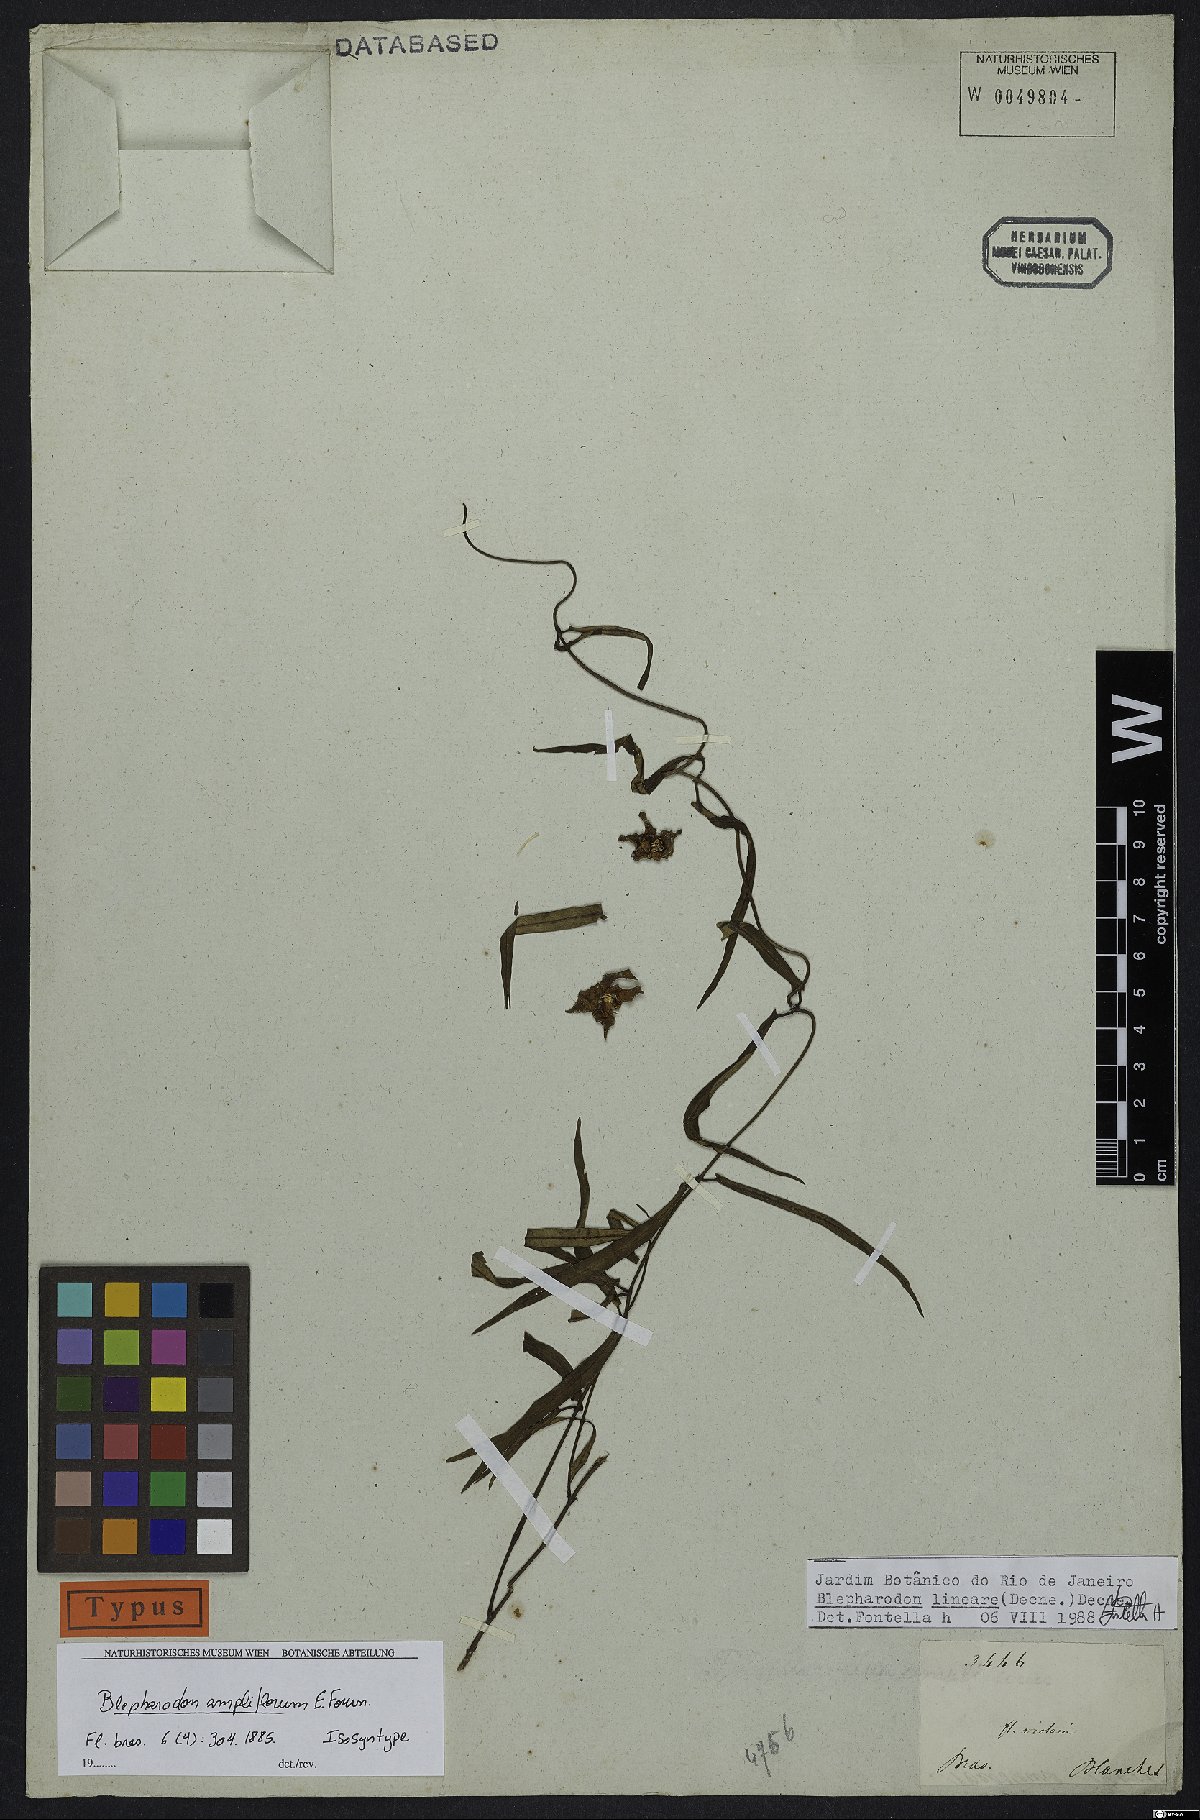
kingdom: Plantae
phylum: Tracheophyta
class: Magnoliopsida
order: Gentianales
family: Apocynaceae
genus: Blepharodon
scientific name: Blepharodon lineare
